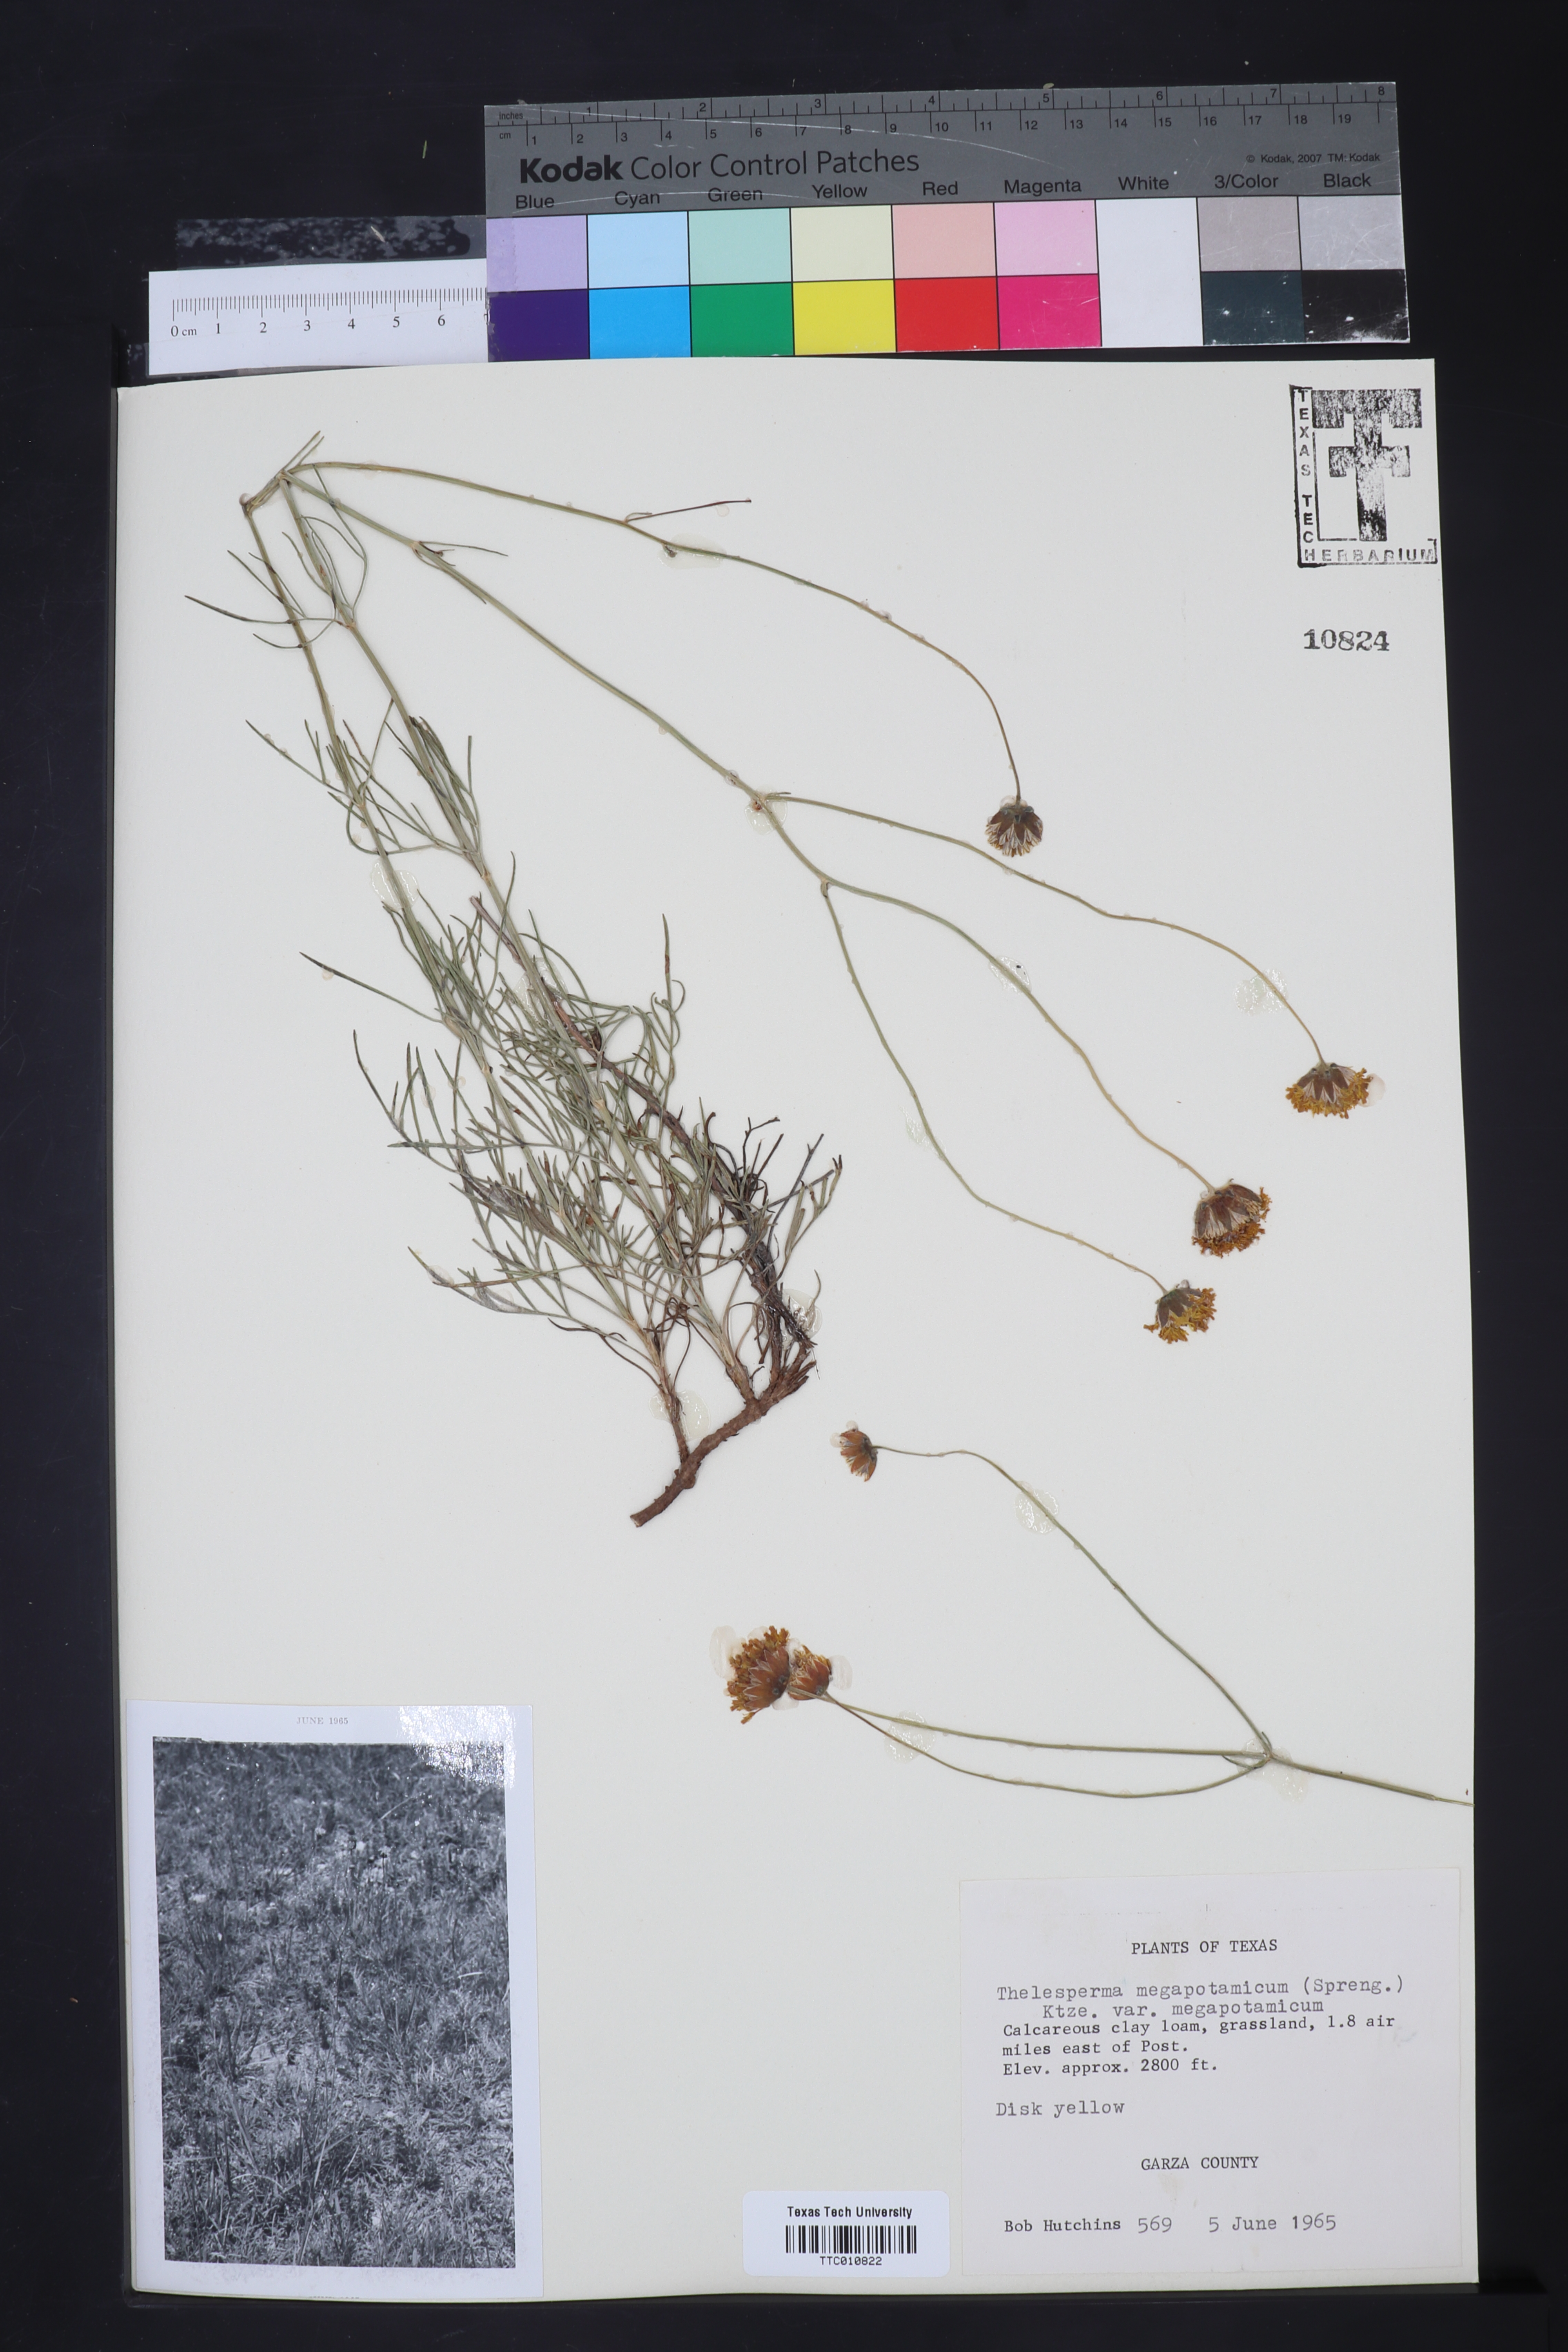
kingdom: Plantae
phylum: Tracheophyta
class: Magnoliopsida
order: Asterales
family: Asteraceae
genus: Thelesperma
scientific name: Thelesperma megapotamicum
